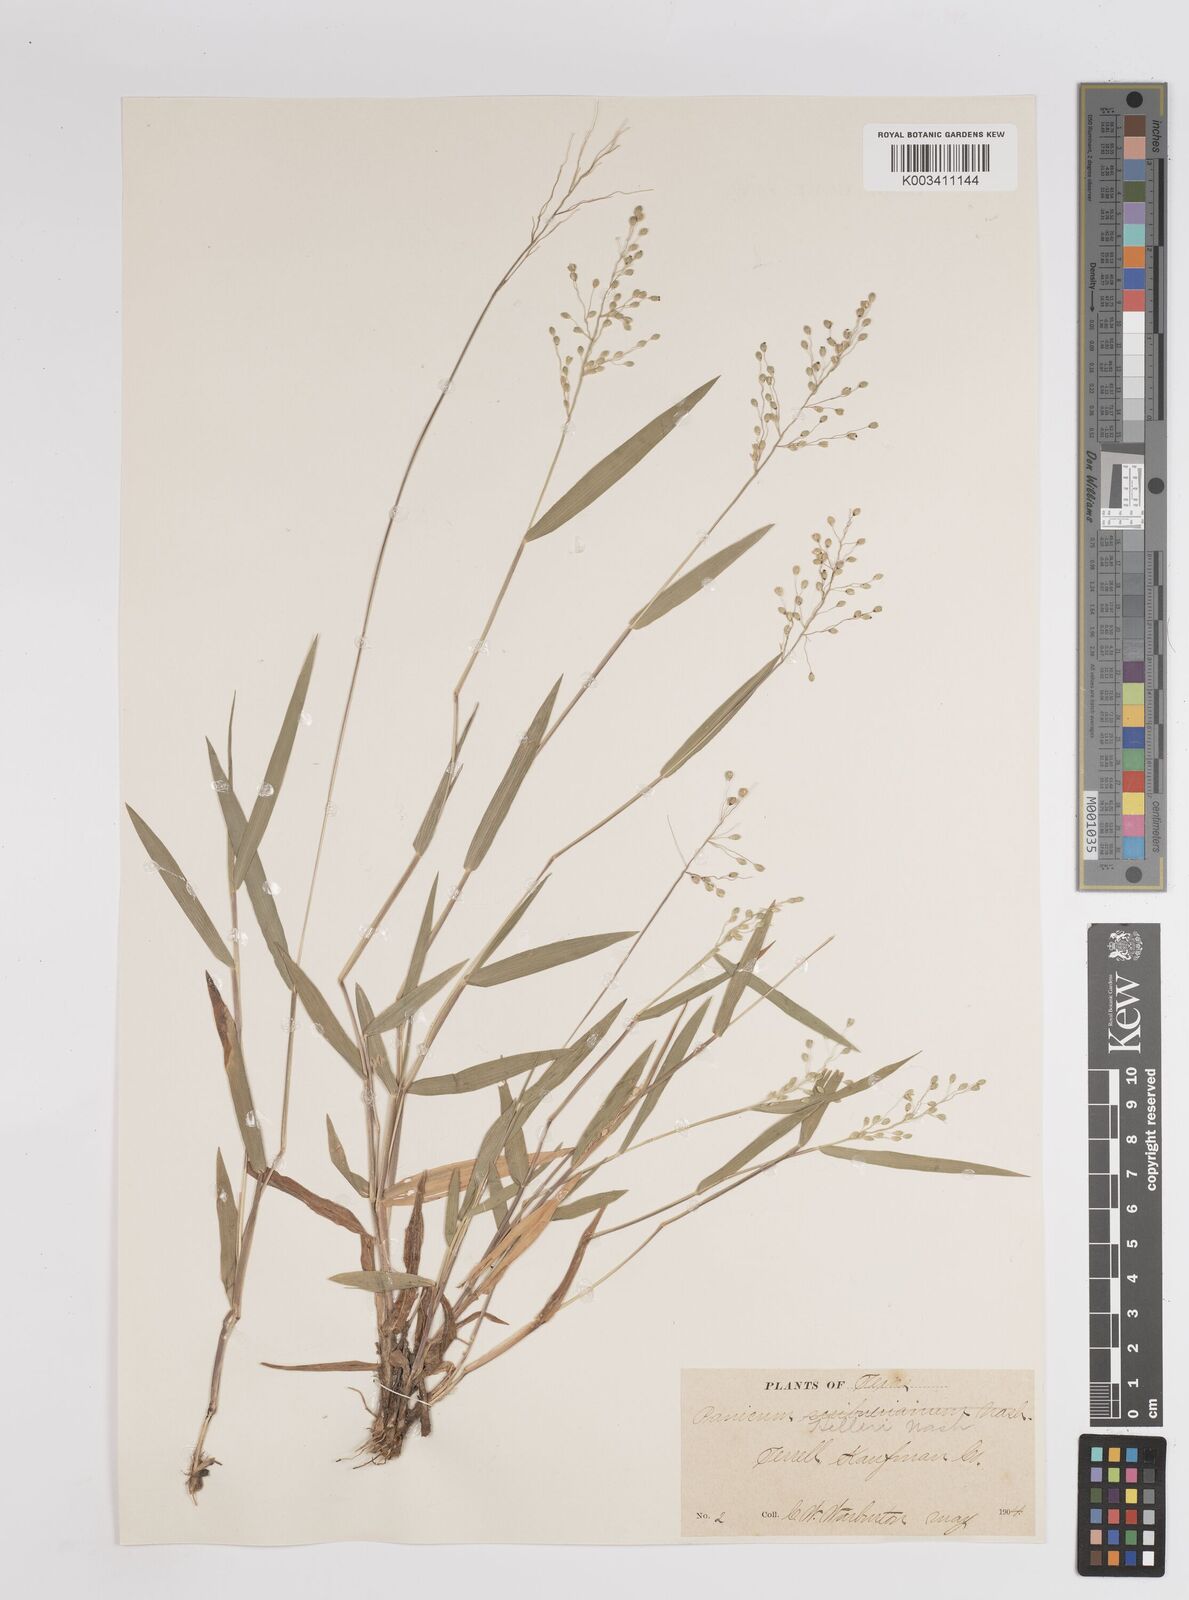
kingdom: Plantae
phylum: Tracheophyta
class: Liliopsida
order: Poales
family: Poaceae
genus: Dichanthelium
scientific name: Dichanthelium oligosanthes
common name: Few-anther obscuregrass
